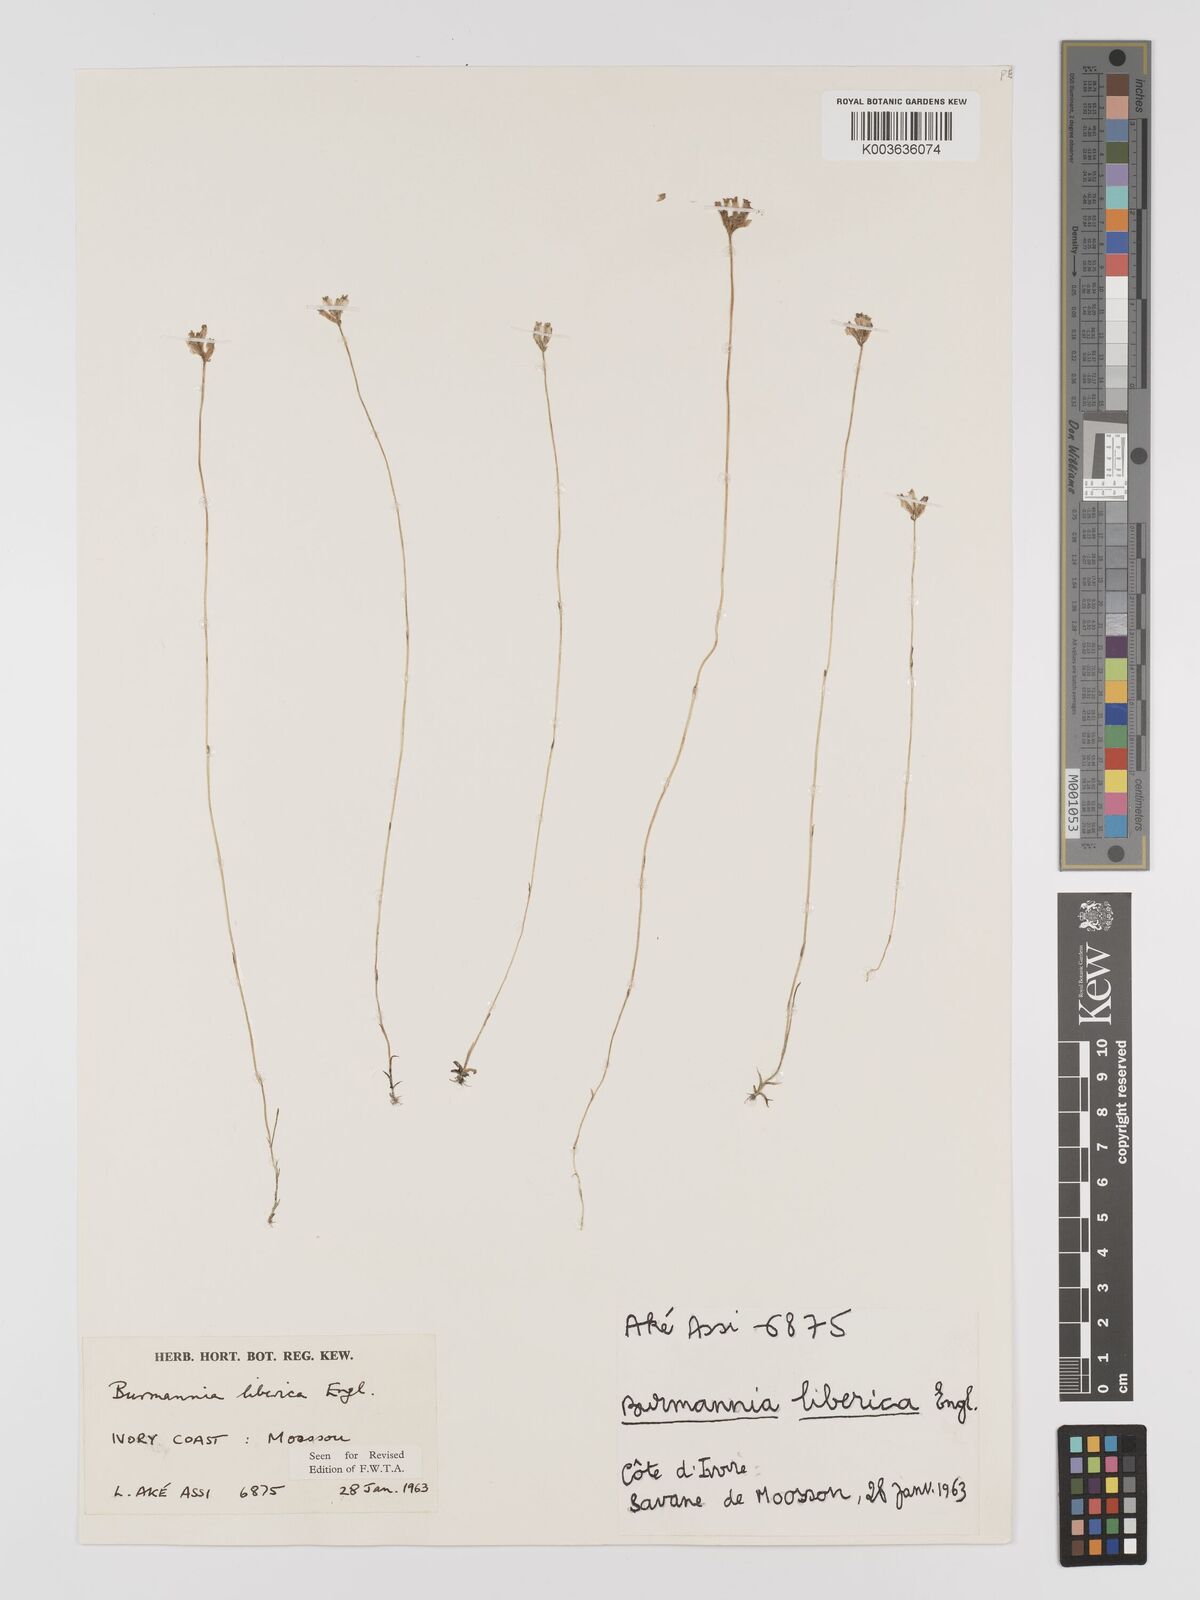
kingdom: Plantae
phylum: Tracheophyta
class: Liliopsida
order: Dioscoreales
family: Burmanniaceae
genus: Burmannia
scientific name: Burmannia madagascariensis
